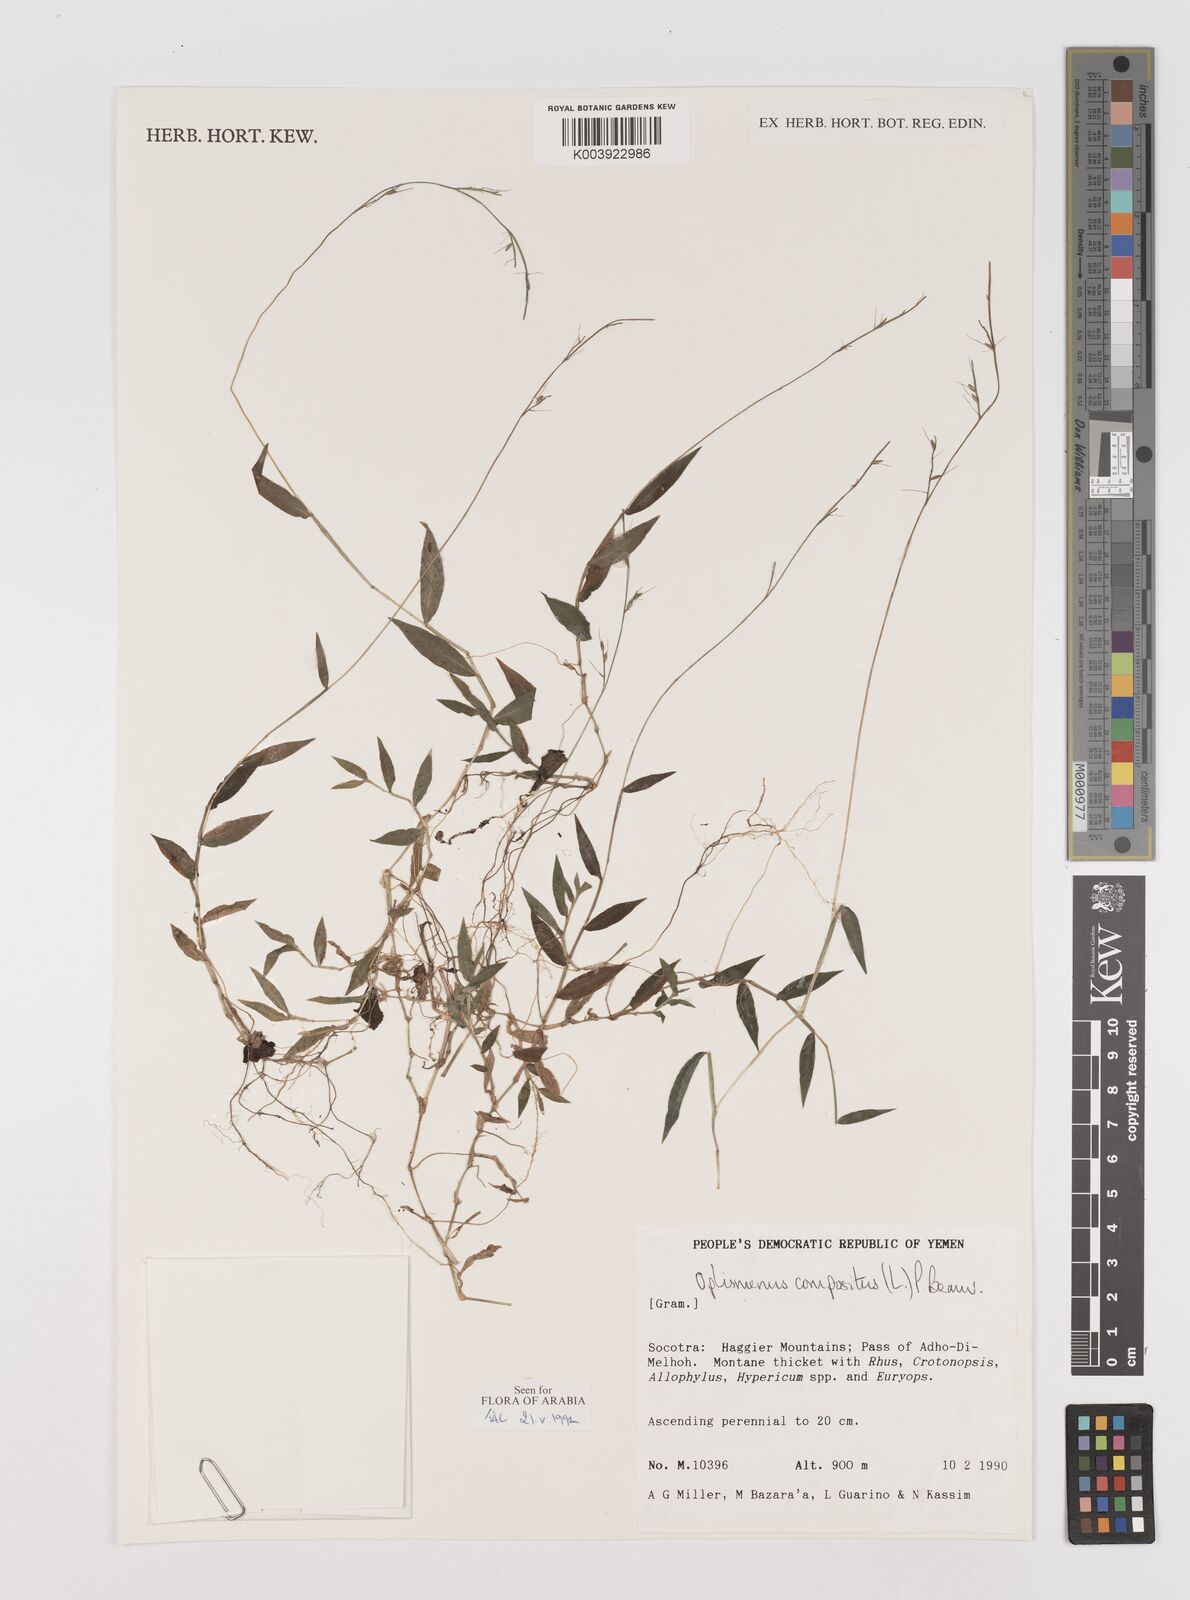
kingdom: Plantae
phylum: Tracheophyta
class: Liliopsida
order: Poales
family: Poaceae
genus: Oplismenus
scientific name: Oplismenus compositus
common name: Running mountain grass
